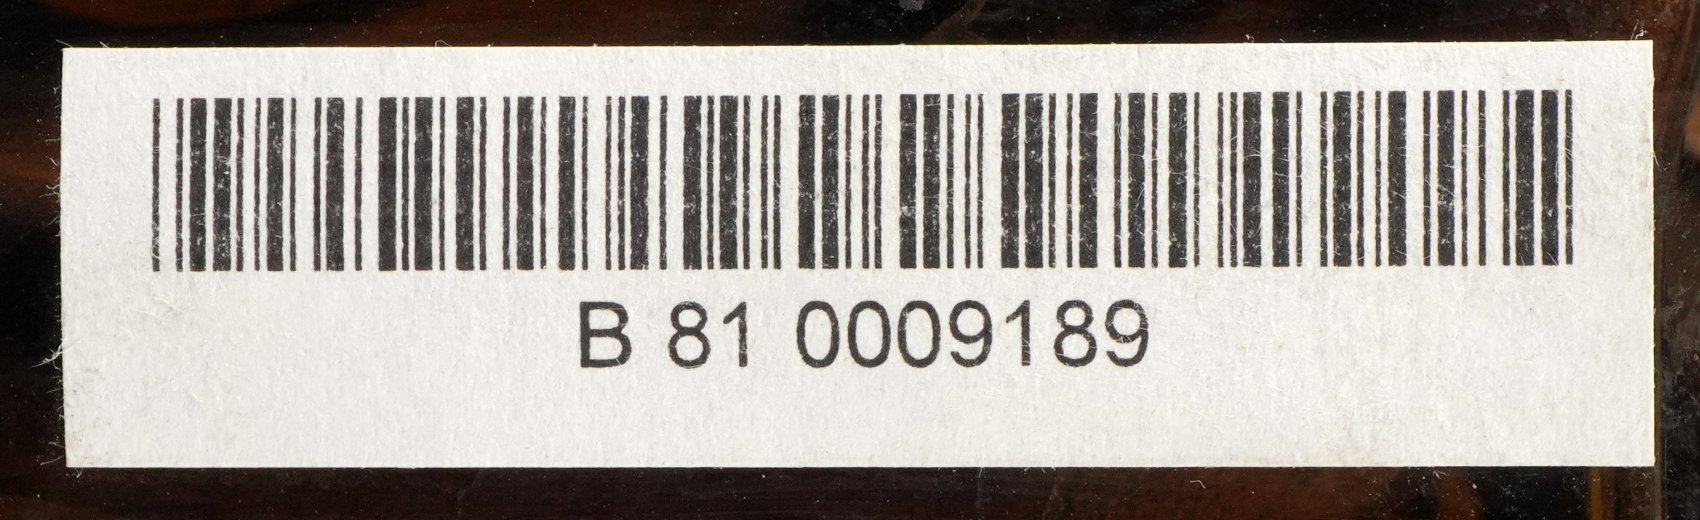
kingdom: Plantae
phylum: Tracheophyta
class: Magnoliopsida
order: Rosales
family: Moraceae
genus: Artocarpus
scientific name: Artocarpus altilis
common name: Breadfruit
